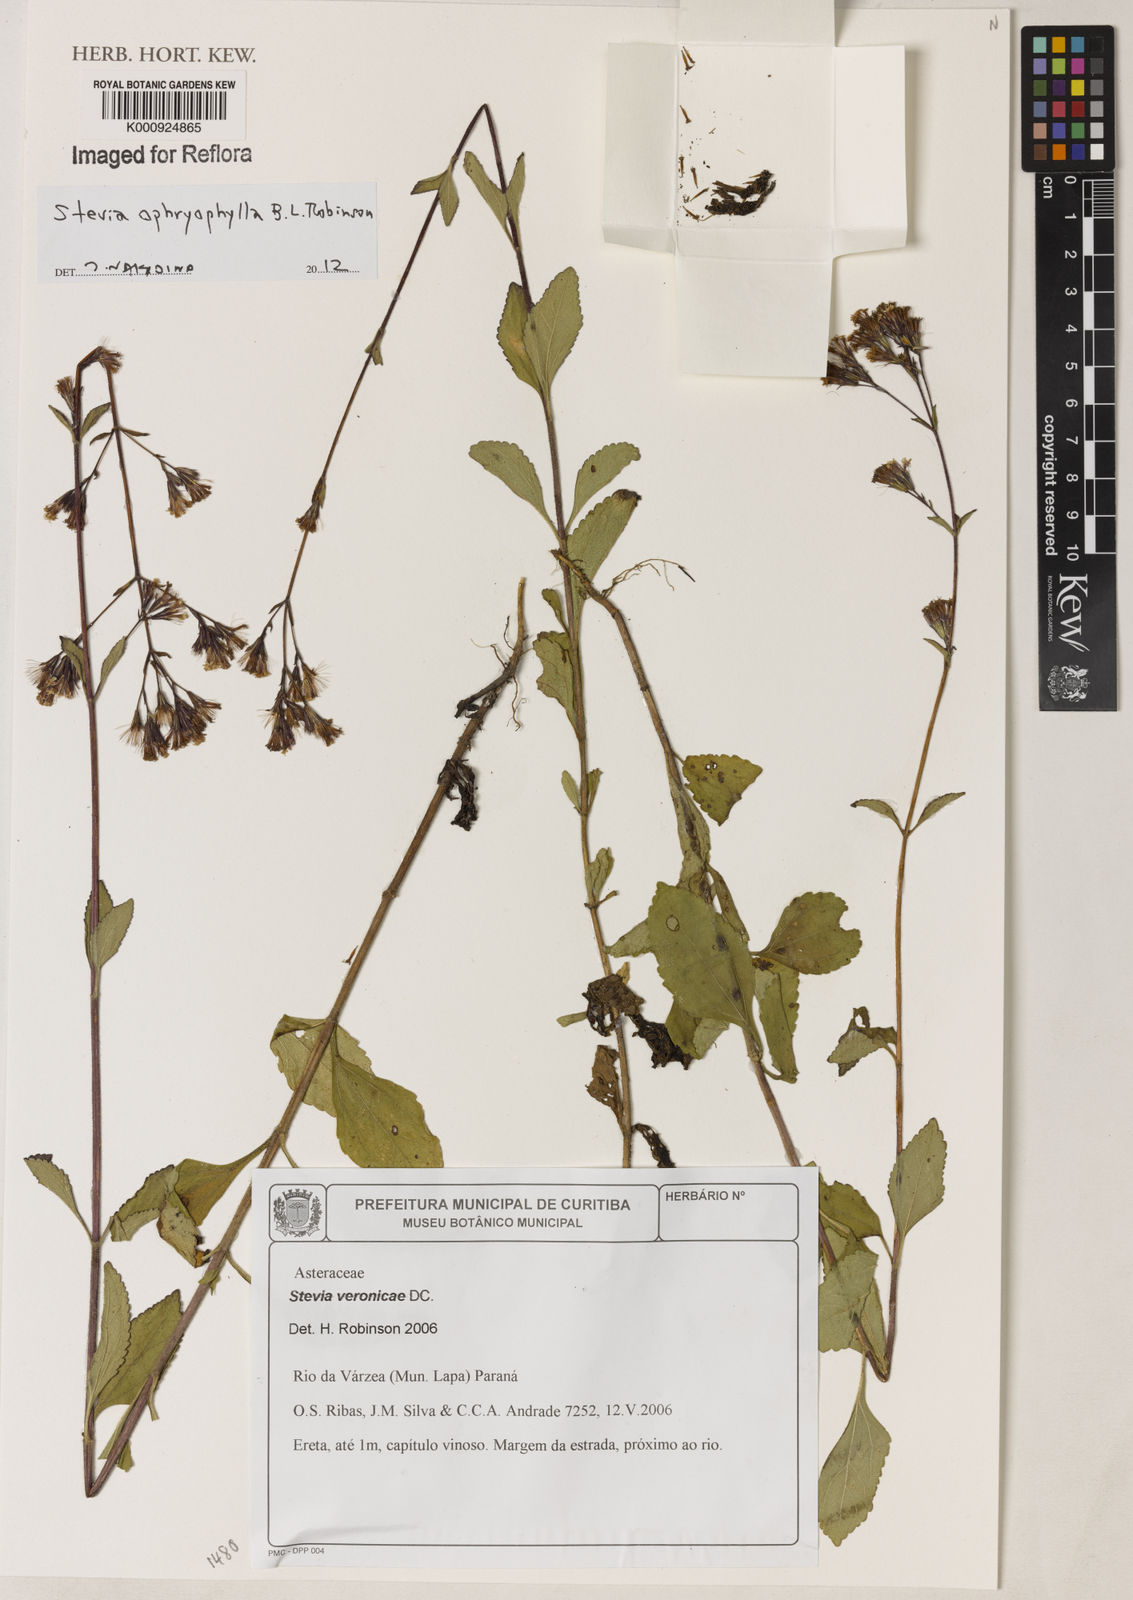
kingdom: Plantae
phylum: Tracheophyta
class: Magnoliopsida
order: Asterales
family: Asteraceae
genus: Stevia
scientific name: Stevia ophryophylla
